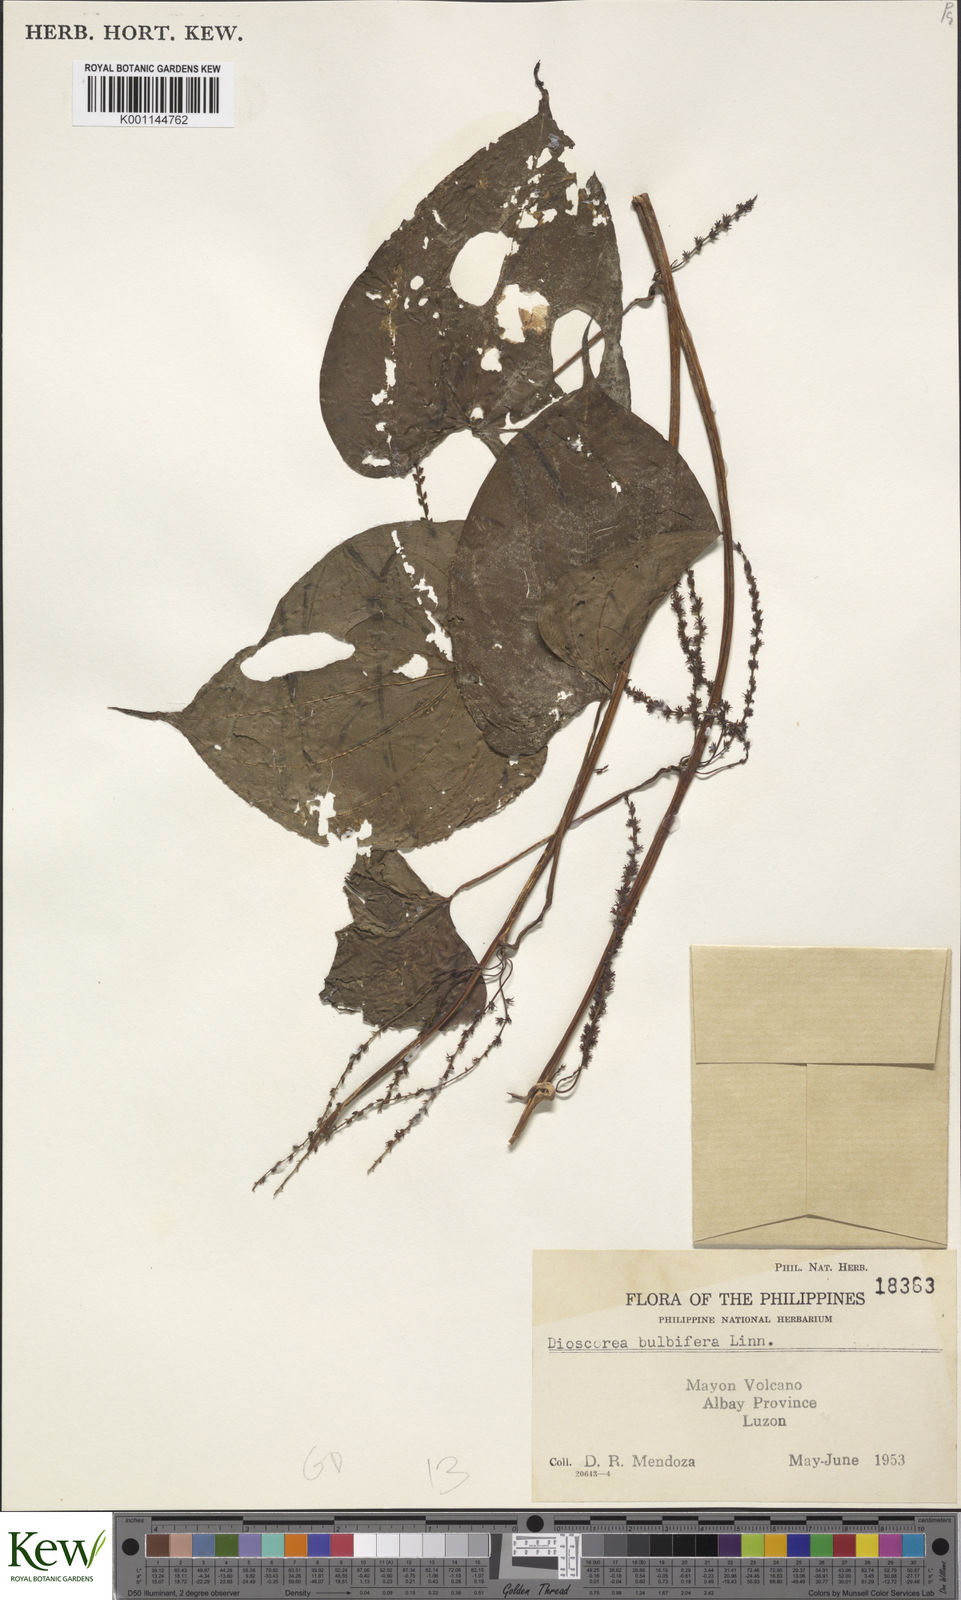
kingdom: Plantae
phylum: Tracheophyta
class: Liliopsida
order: Dioscoreales
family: Dioscoreaceae
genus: Dioscorea
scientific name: Dioscorea bulbifera
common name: Air yam
